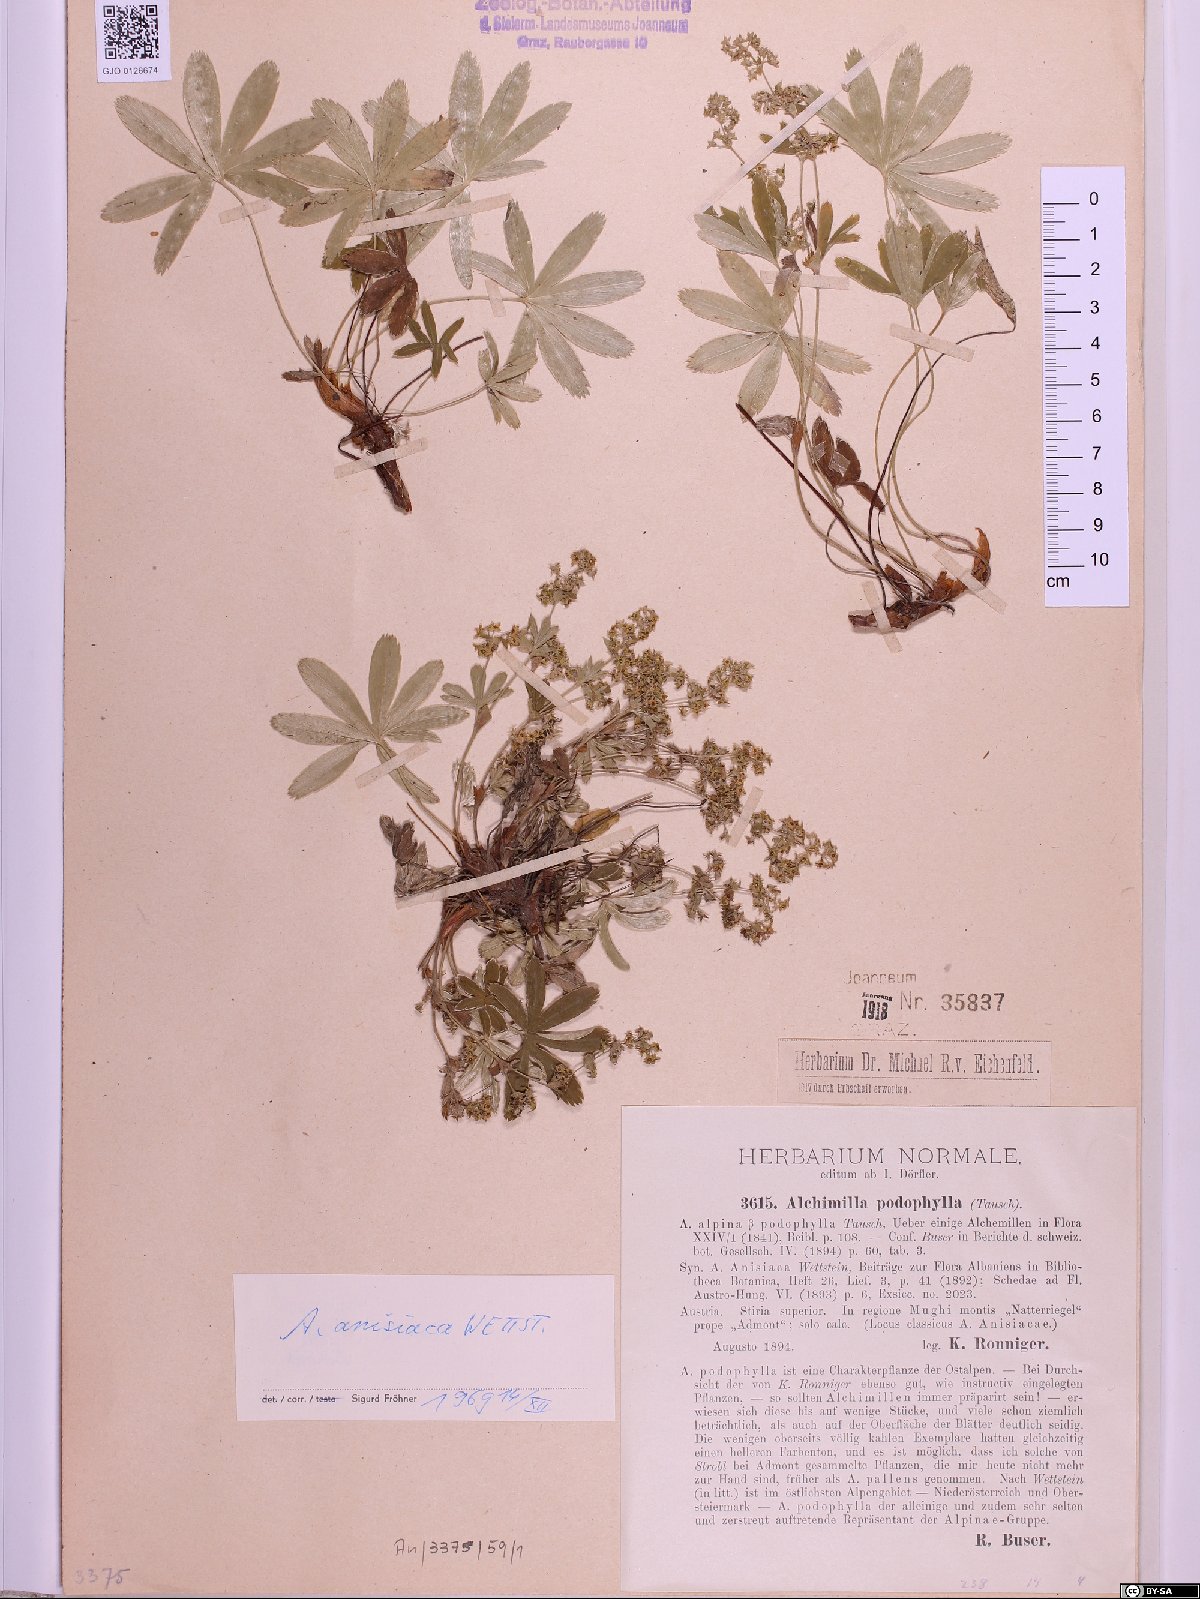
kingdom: Plantae
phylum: Tracheophyta
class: Magnoliopsida
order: Rosales
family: Rosaceae
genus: Alchemilla
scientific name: Alchemilla anisiaca
